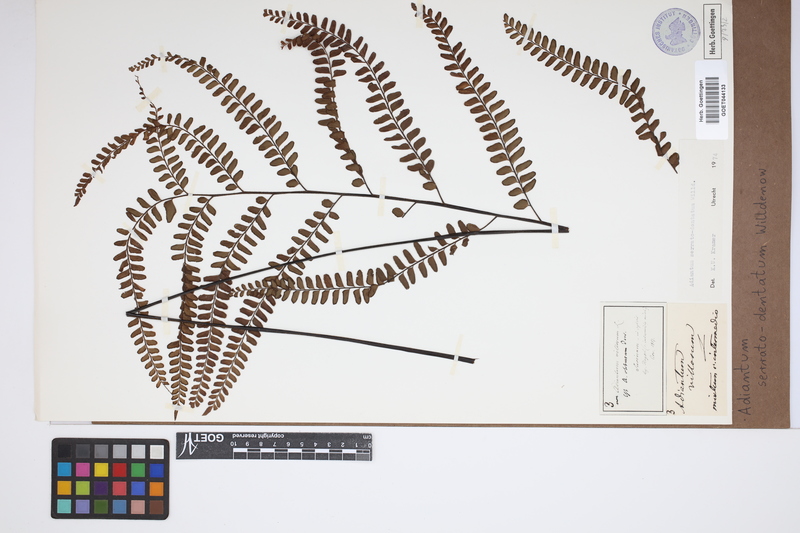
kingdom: Plantae
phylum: Tracheophyta
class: Polypodiopsida
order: Polypodiales
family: Pteridaceae
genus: Adiantum
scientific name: Adiantum serratodentatum
